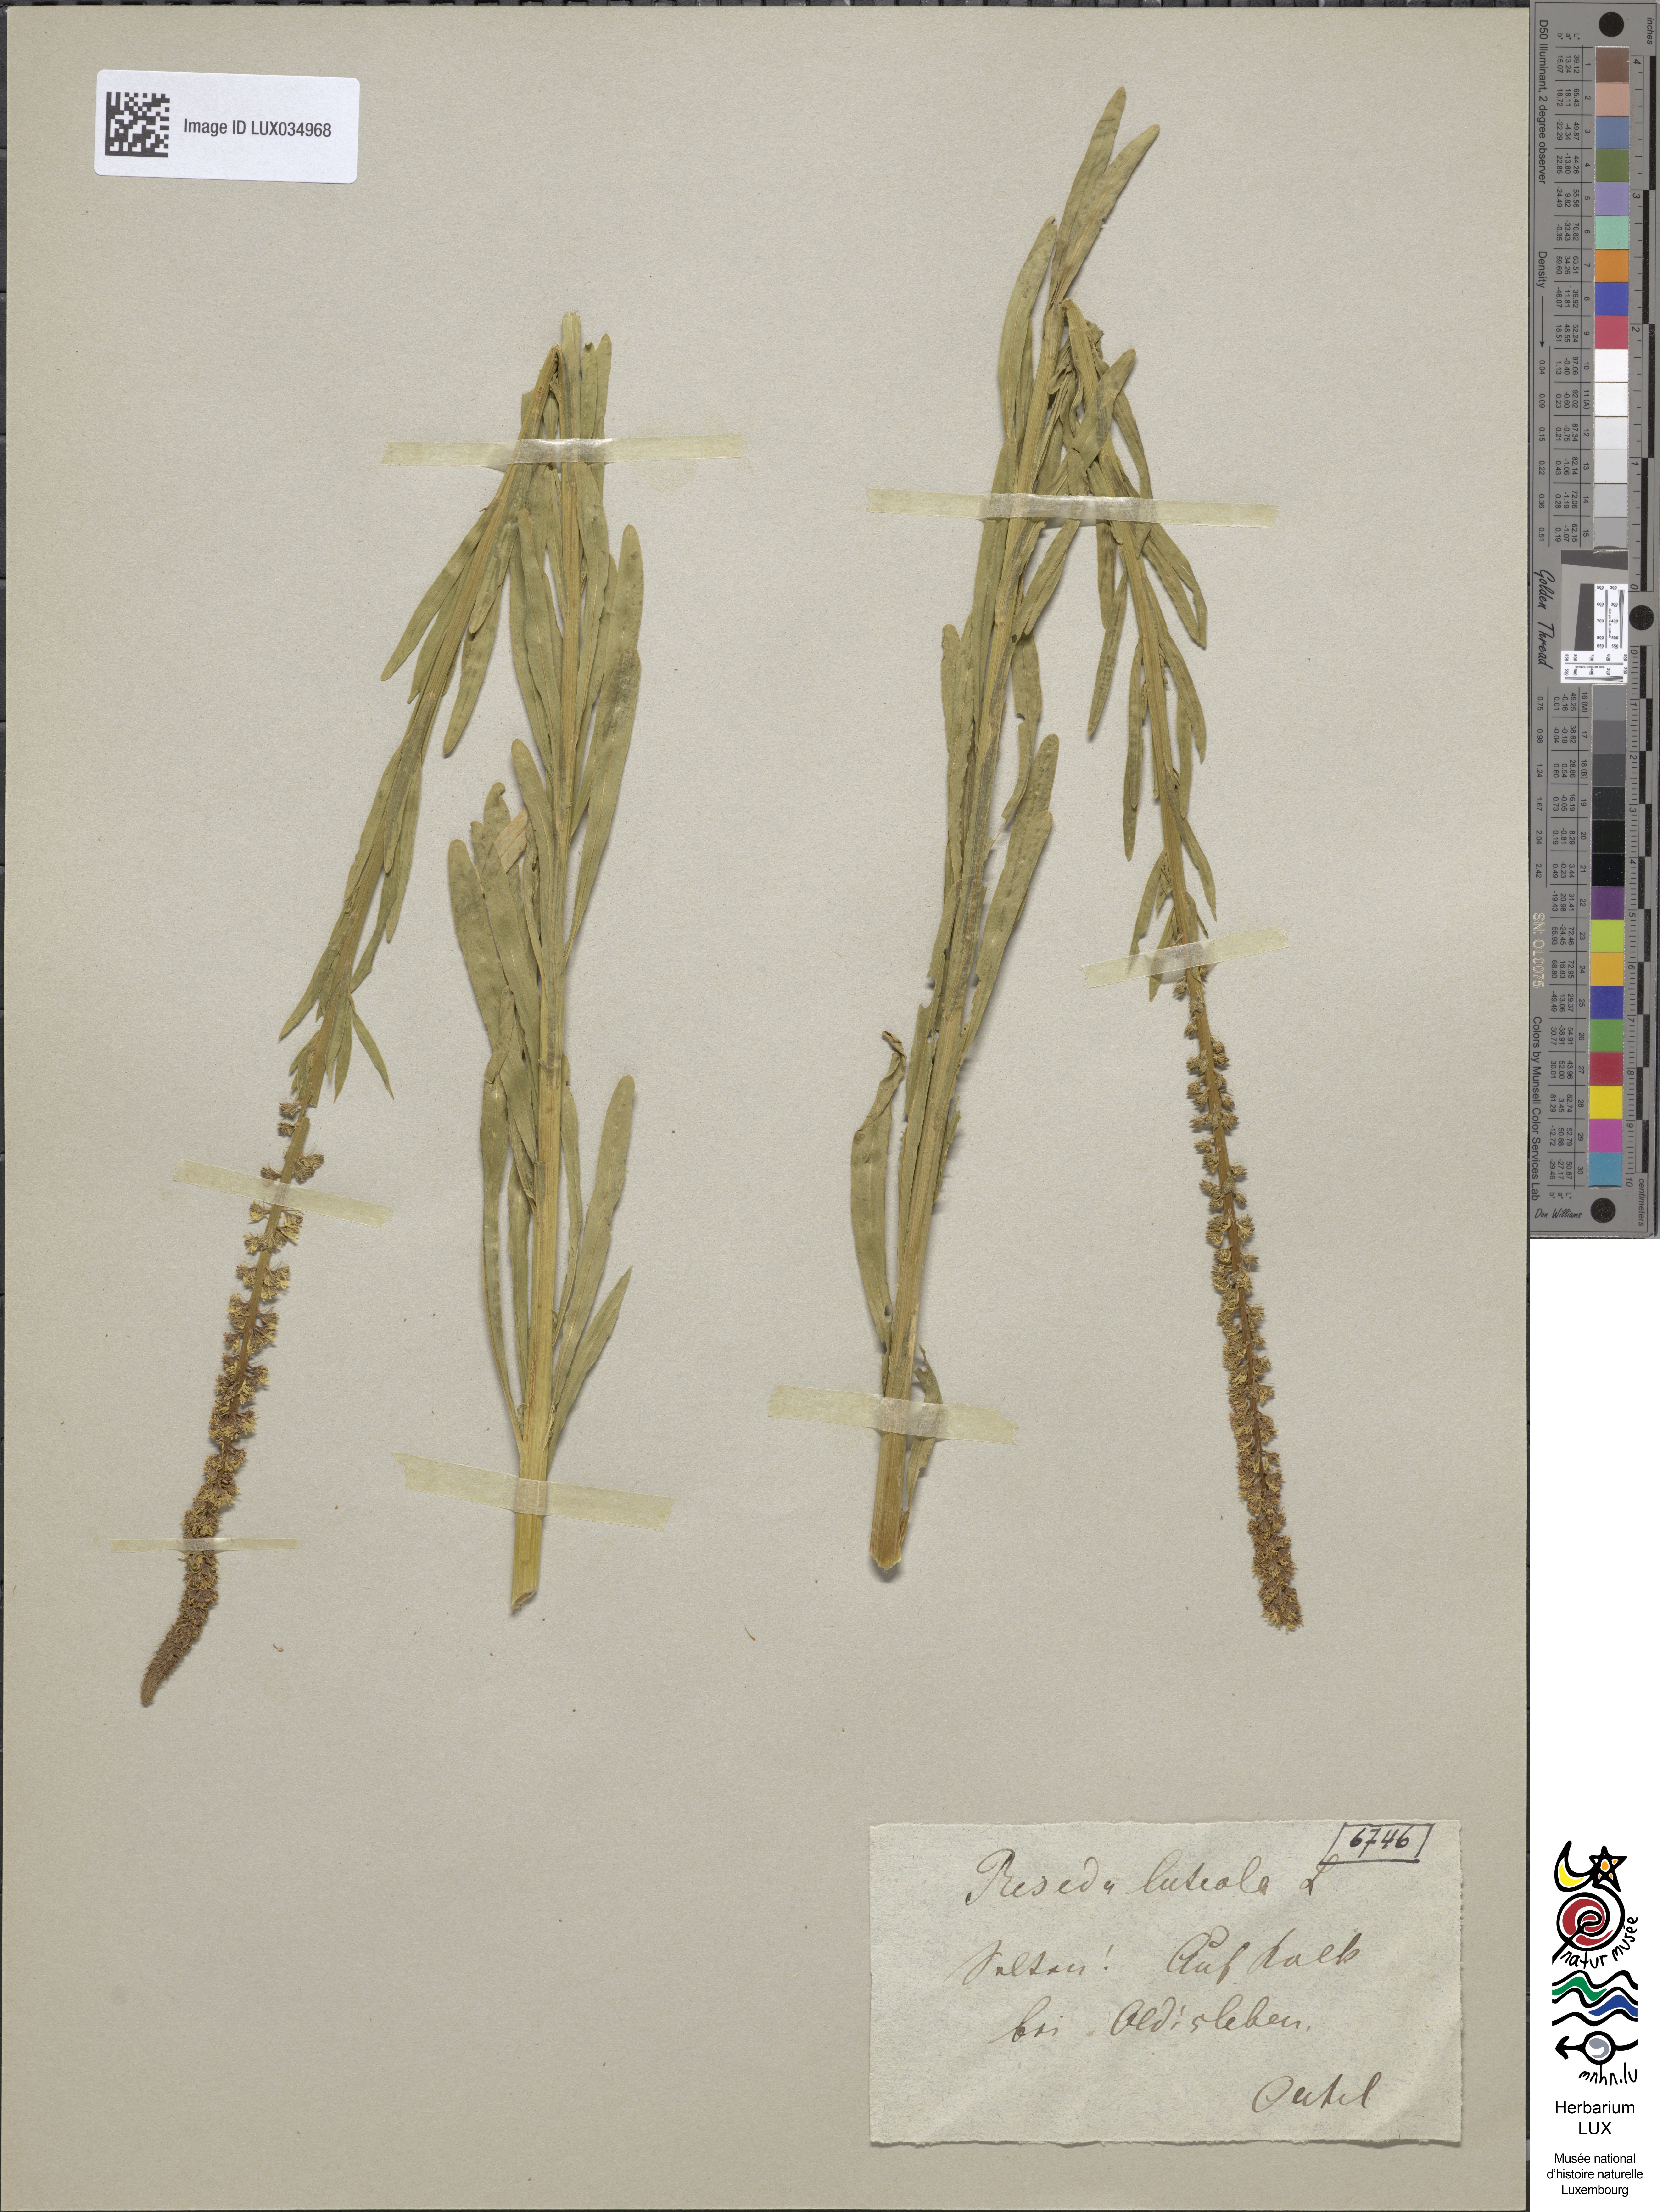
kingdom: Plantae
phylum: Tracheophyta
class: Magnoliopsida
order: Brassicales
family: Resedaceae
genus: Reseda
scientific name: Reseda luteola
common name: Weld
